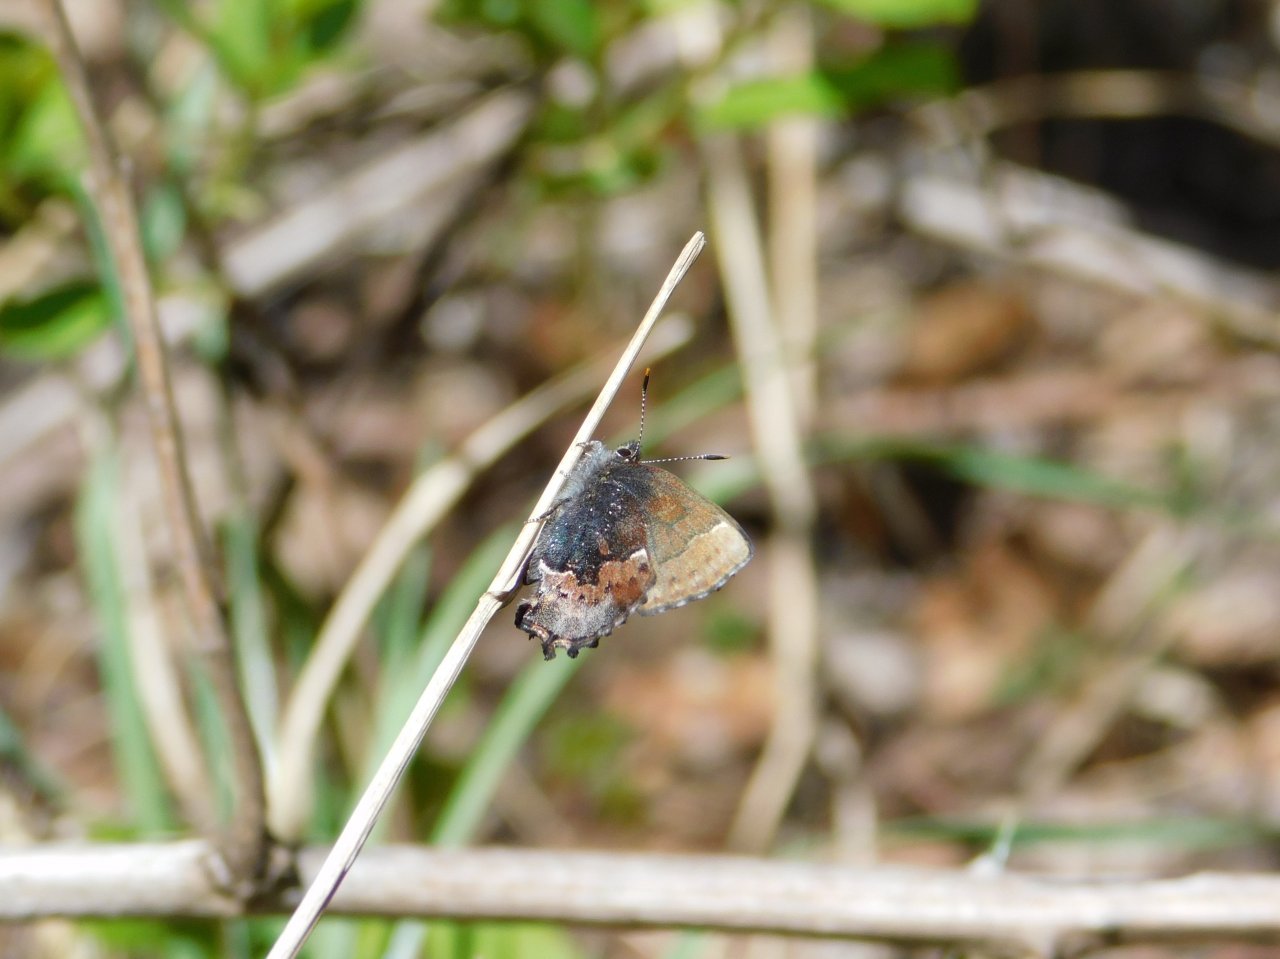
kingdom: Animalia
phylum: Arthropoda
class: Insecta
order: Lepidoptera
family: Lycaenidae
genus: Incisalia
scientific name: Incisalia henrici
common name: Henry's Elfin
